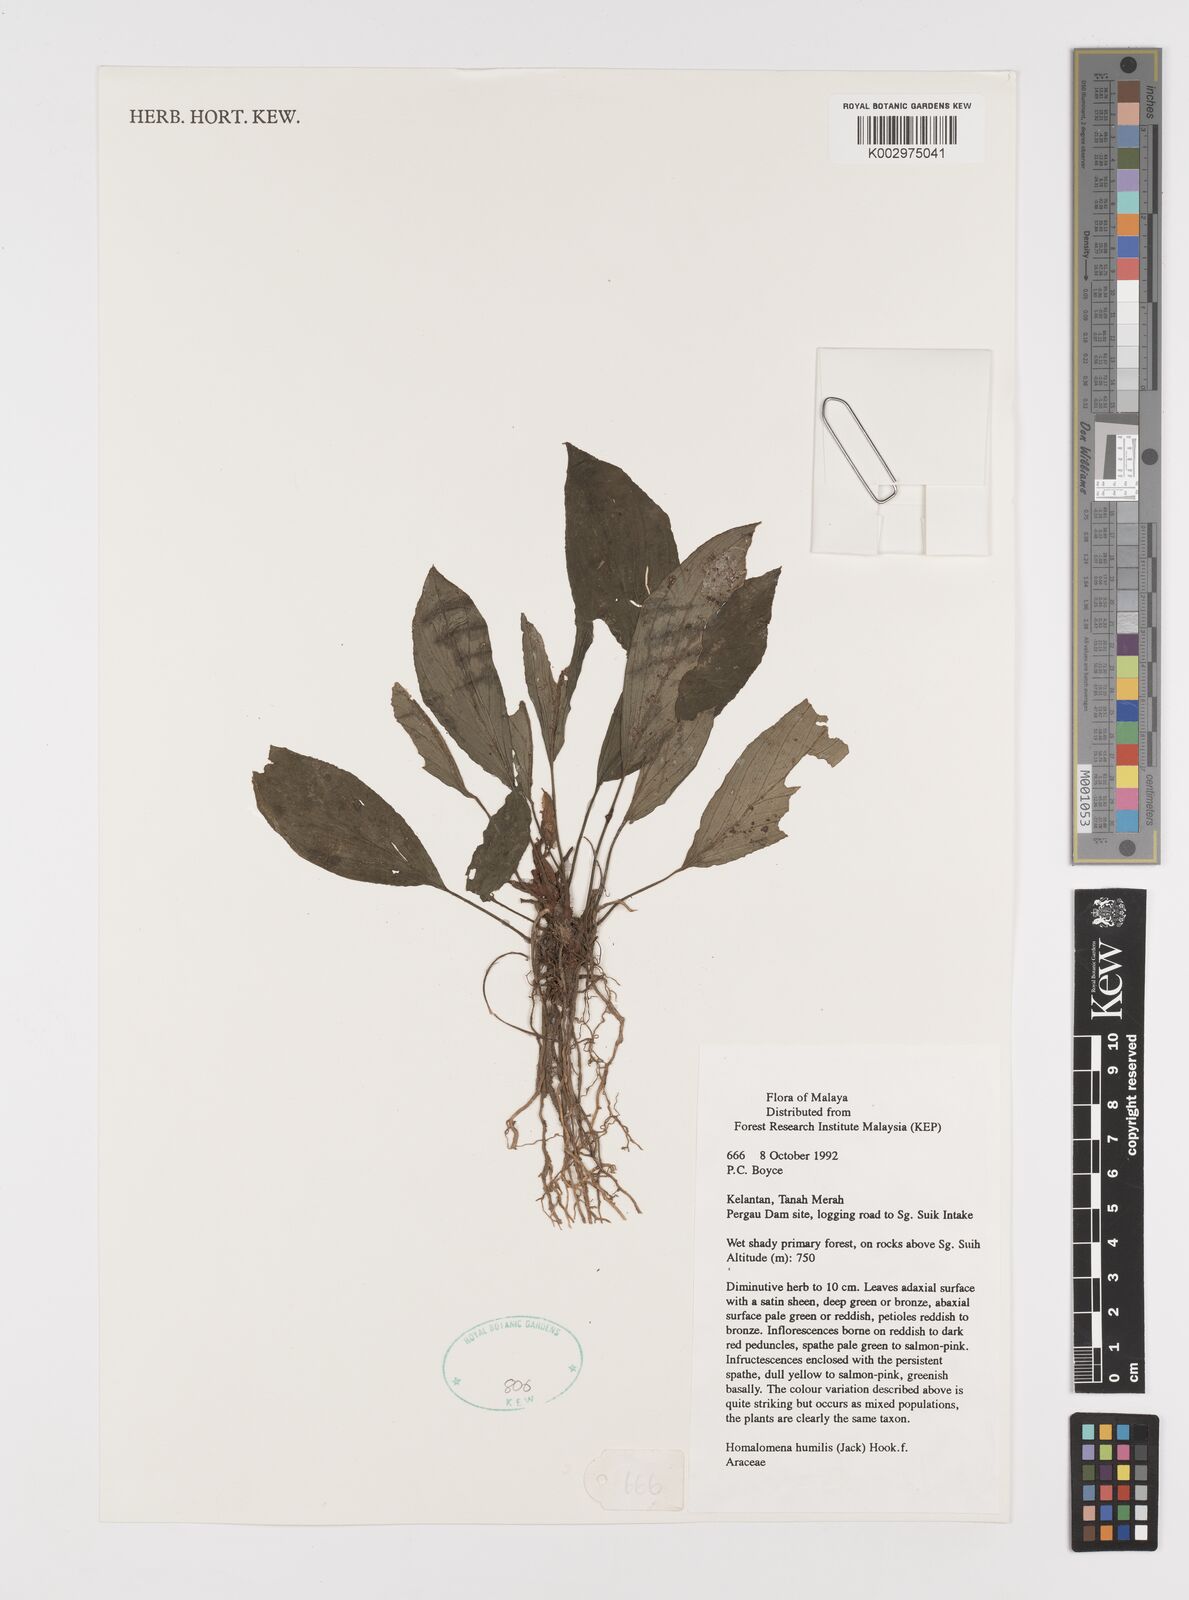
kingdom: Plantae
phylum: Tracheophyta
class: Liliopsida
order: Alismatales
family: Araceae
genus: Homalomena
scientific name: Homalomena humilis
